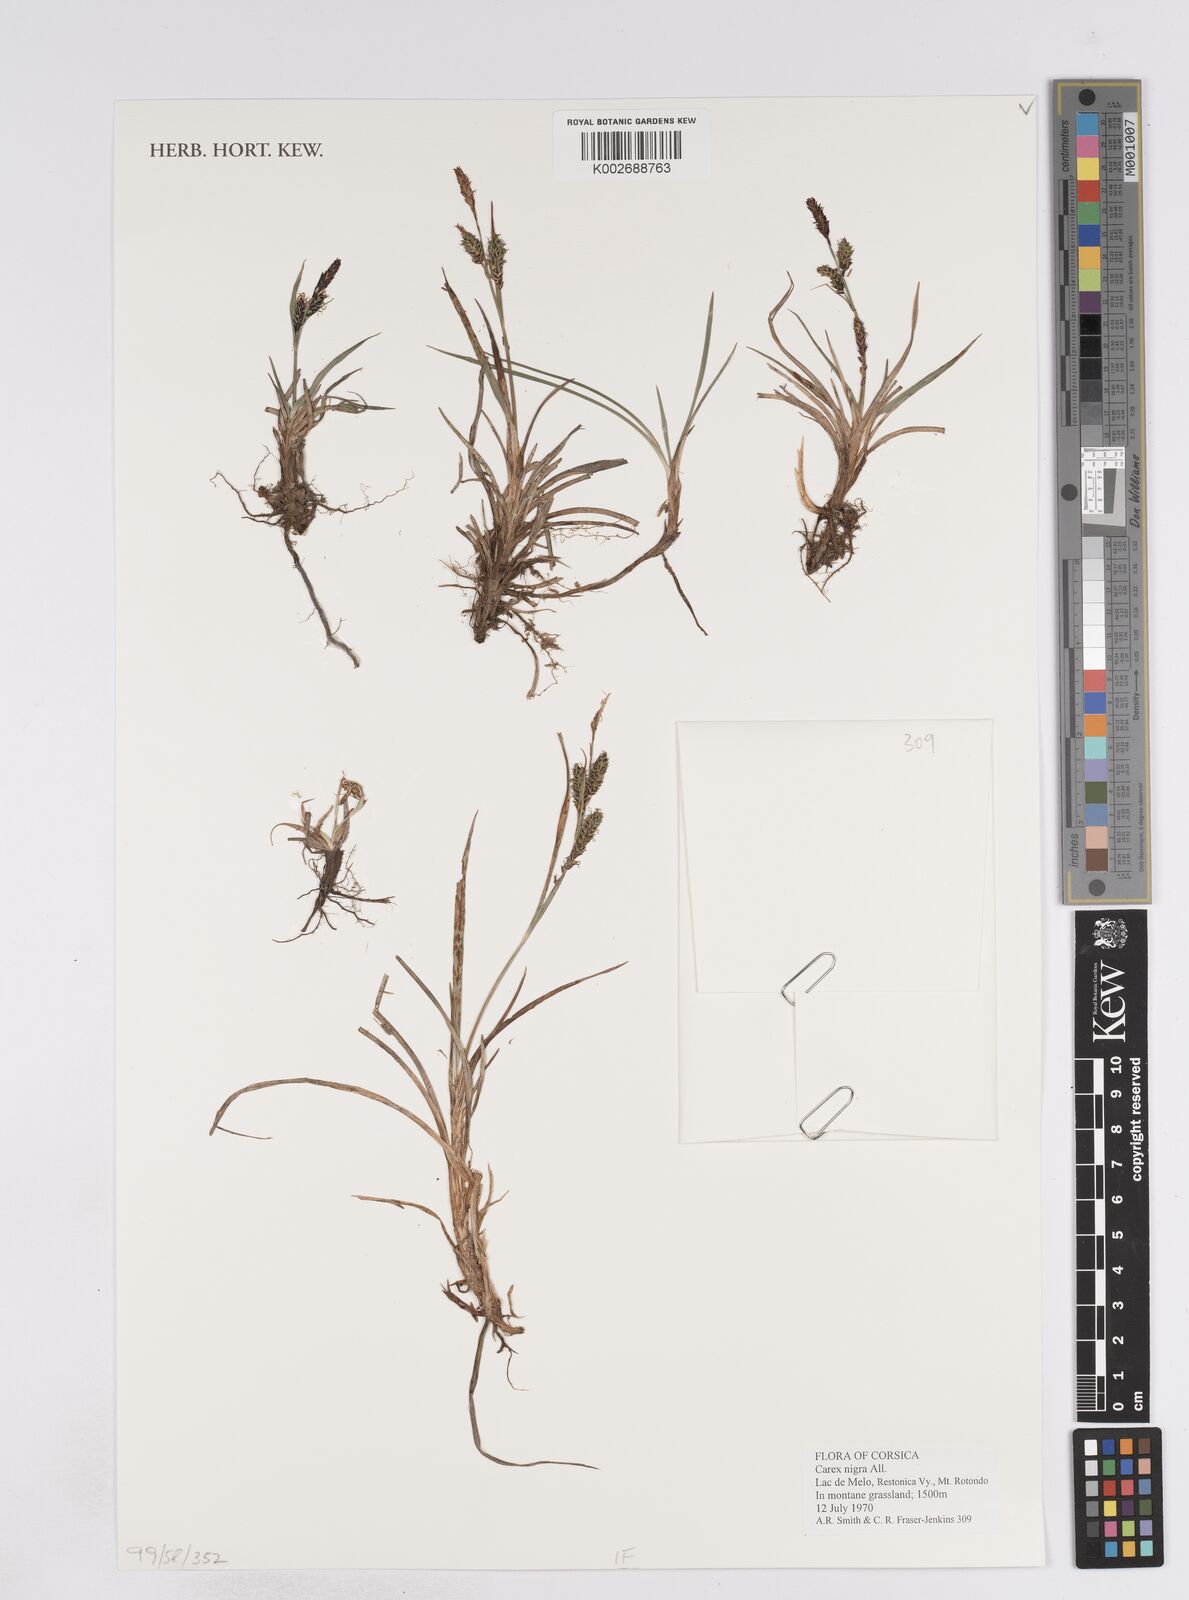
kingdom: Plantae
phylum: Tracheophyta
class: Liliopsida
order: Poales
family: Cyperaceae
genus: Carex
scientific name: Carex parviflora
